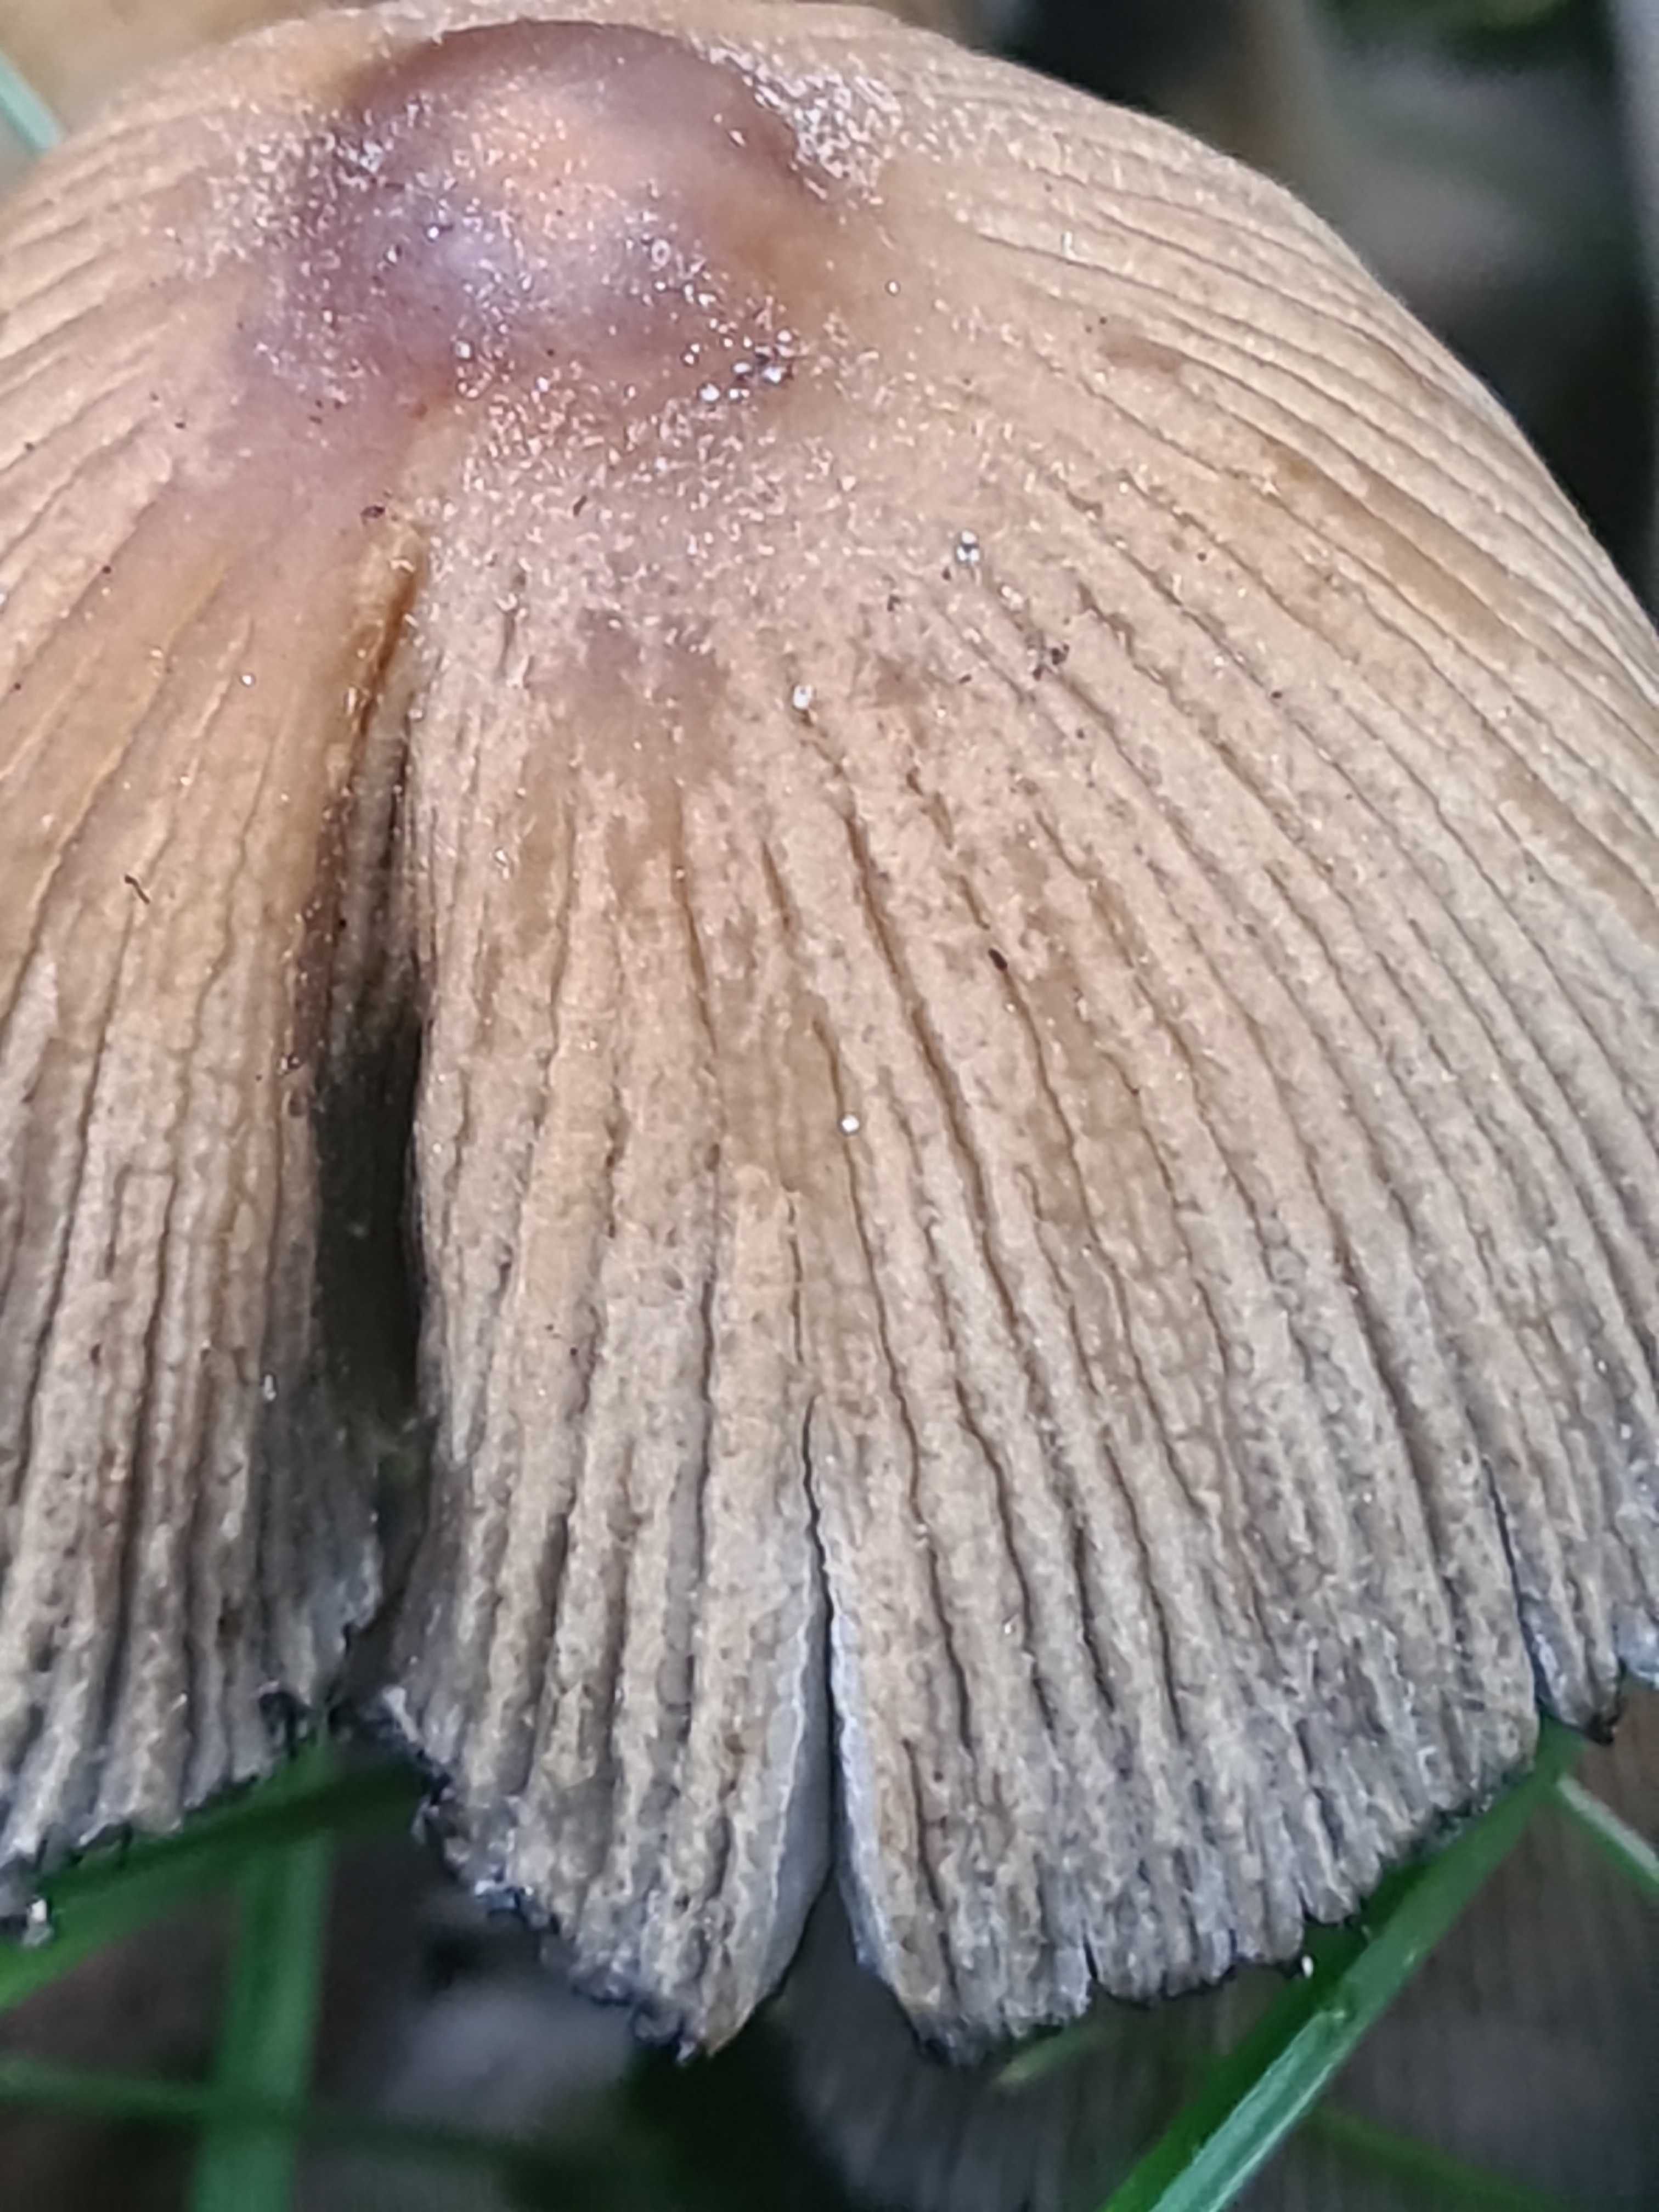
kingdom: Fungi
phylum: Basidiomycota
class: Agaricomycetes
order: Agaricales
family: Psathyrellaceae
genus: Coprinellus
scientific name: Coprinellus micaceus
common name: glimmer-blækhat
